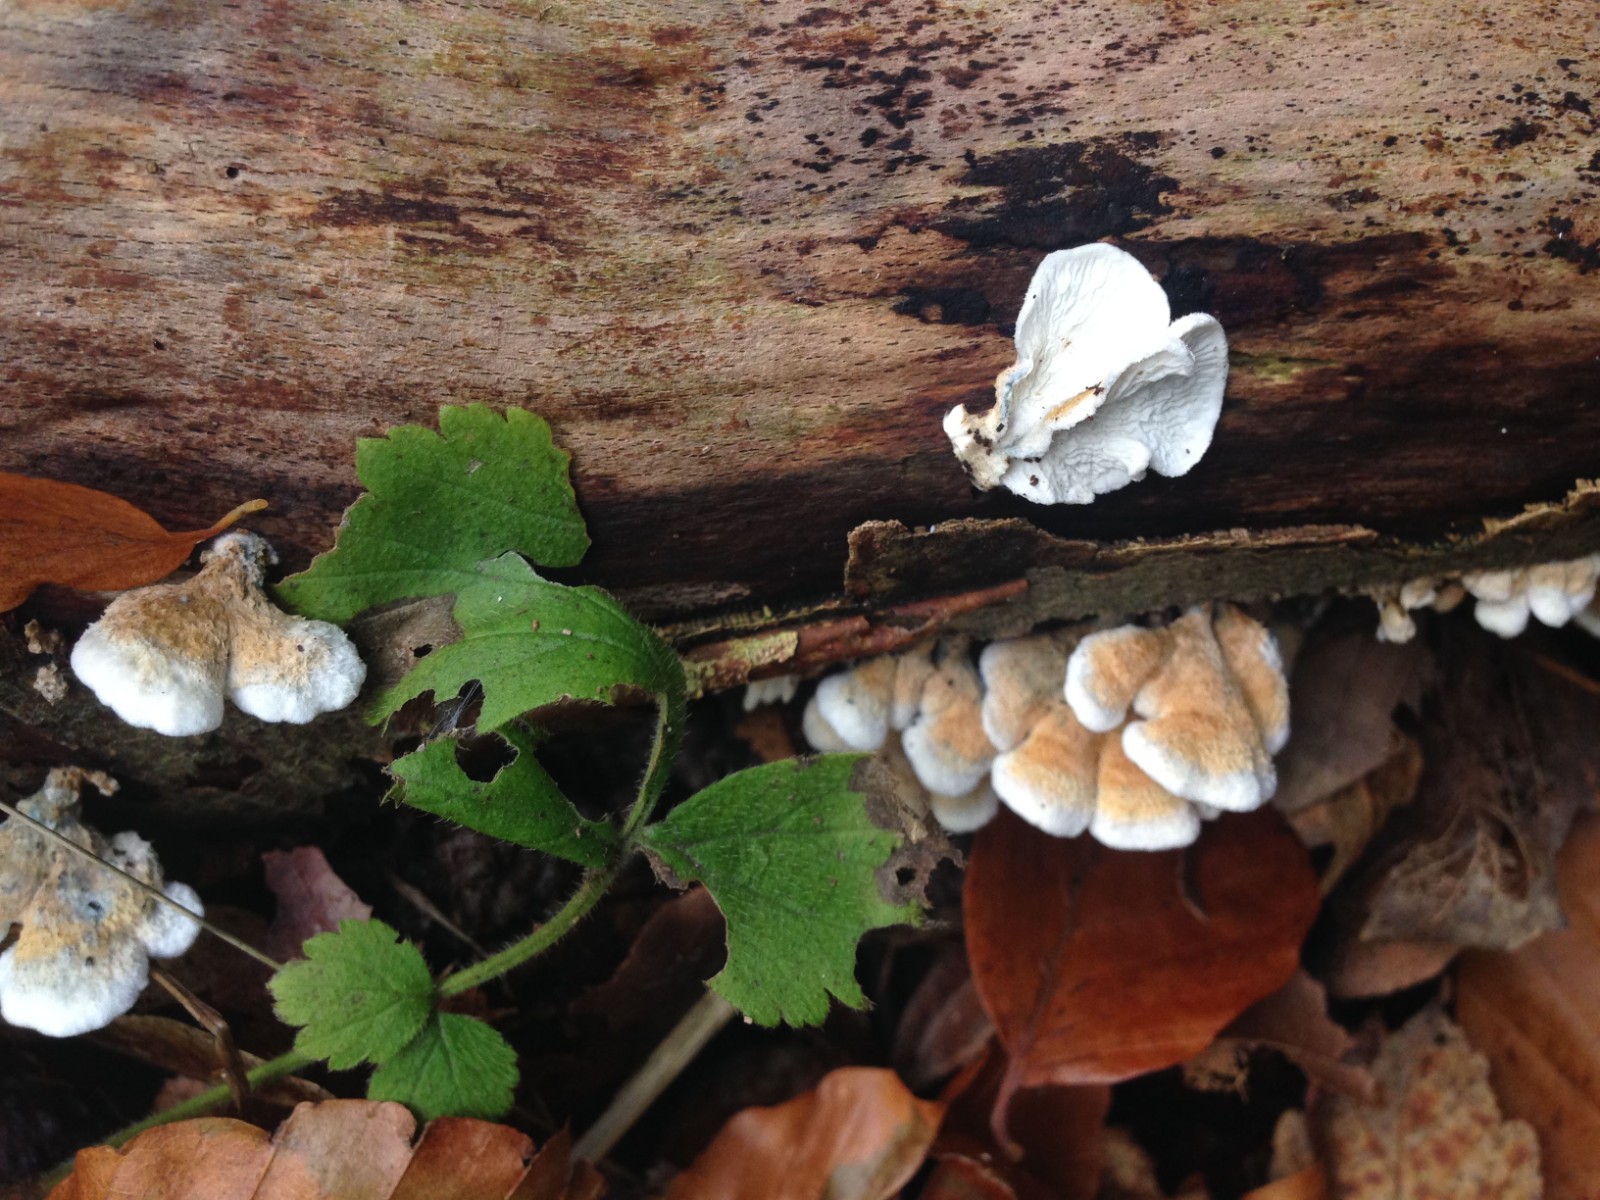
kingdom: Fungi
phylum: Basidiomycota
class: Agaricomycetes
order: Amylocorticiales
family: Amylocorticiaceae
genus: Plicaturopsis
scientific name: Plicaturopsis crispa
